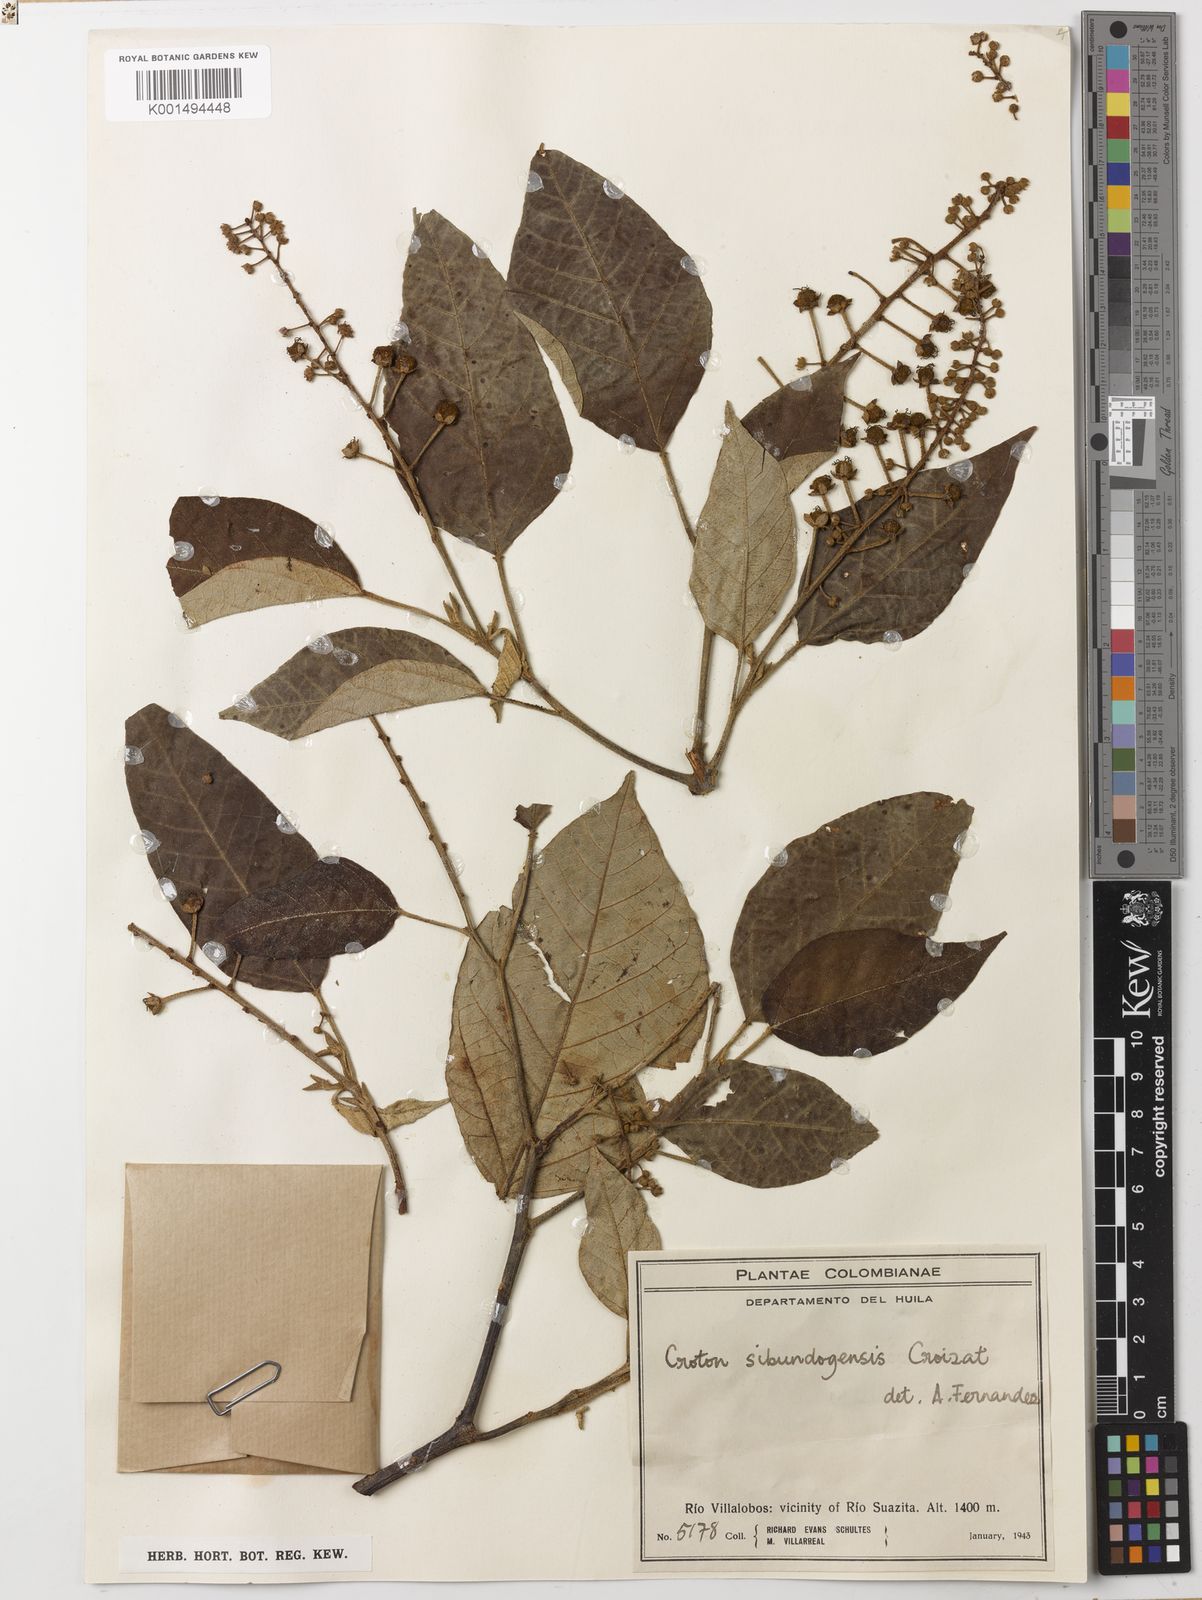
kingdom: Plantae
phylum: Tracheophyta
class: Magnoliopsida
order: Malpighiales
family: Euphorbiaceae
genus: Croton
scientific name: Croton sibundoyensis
